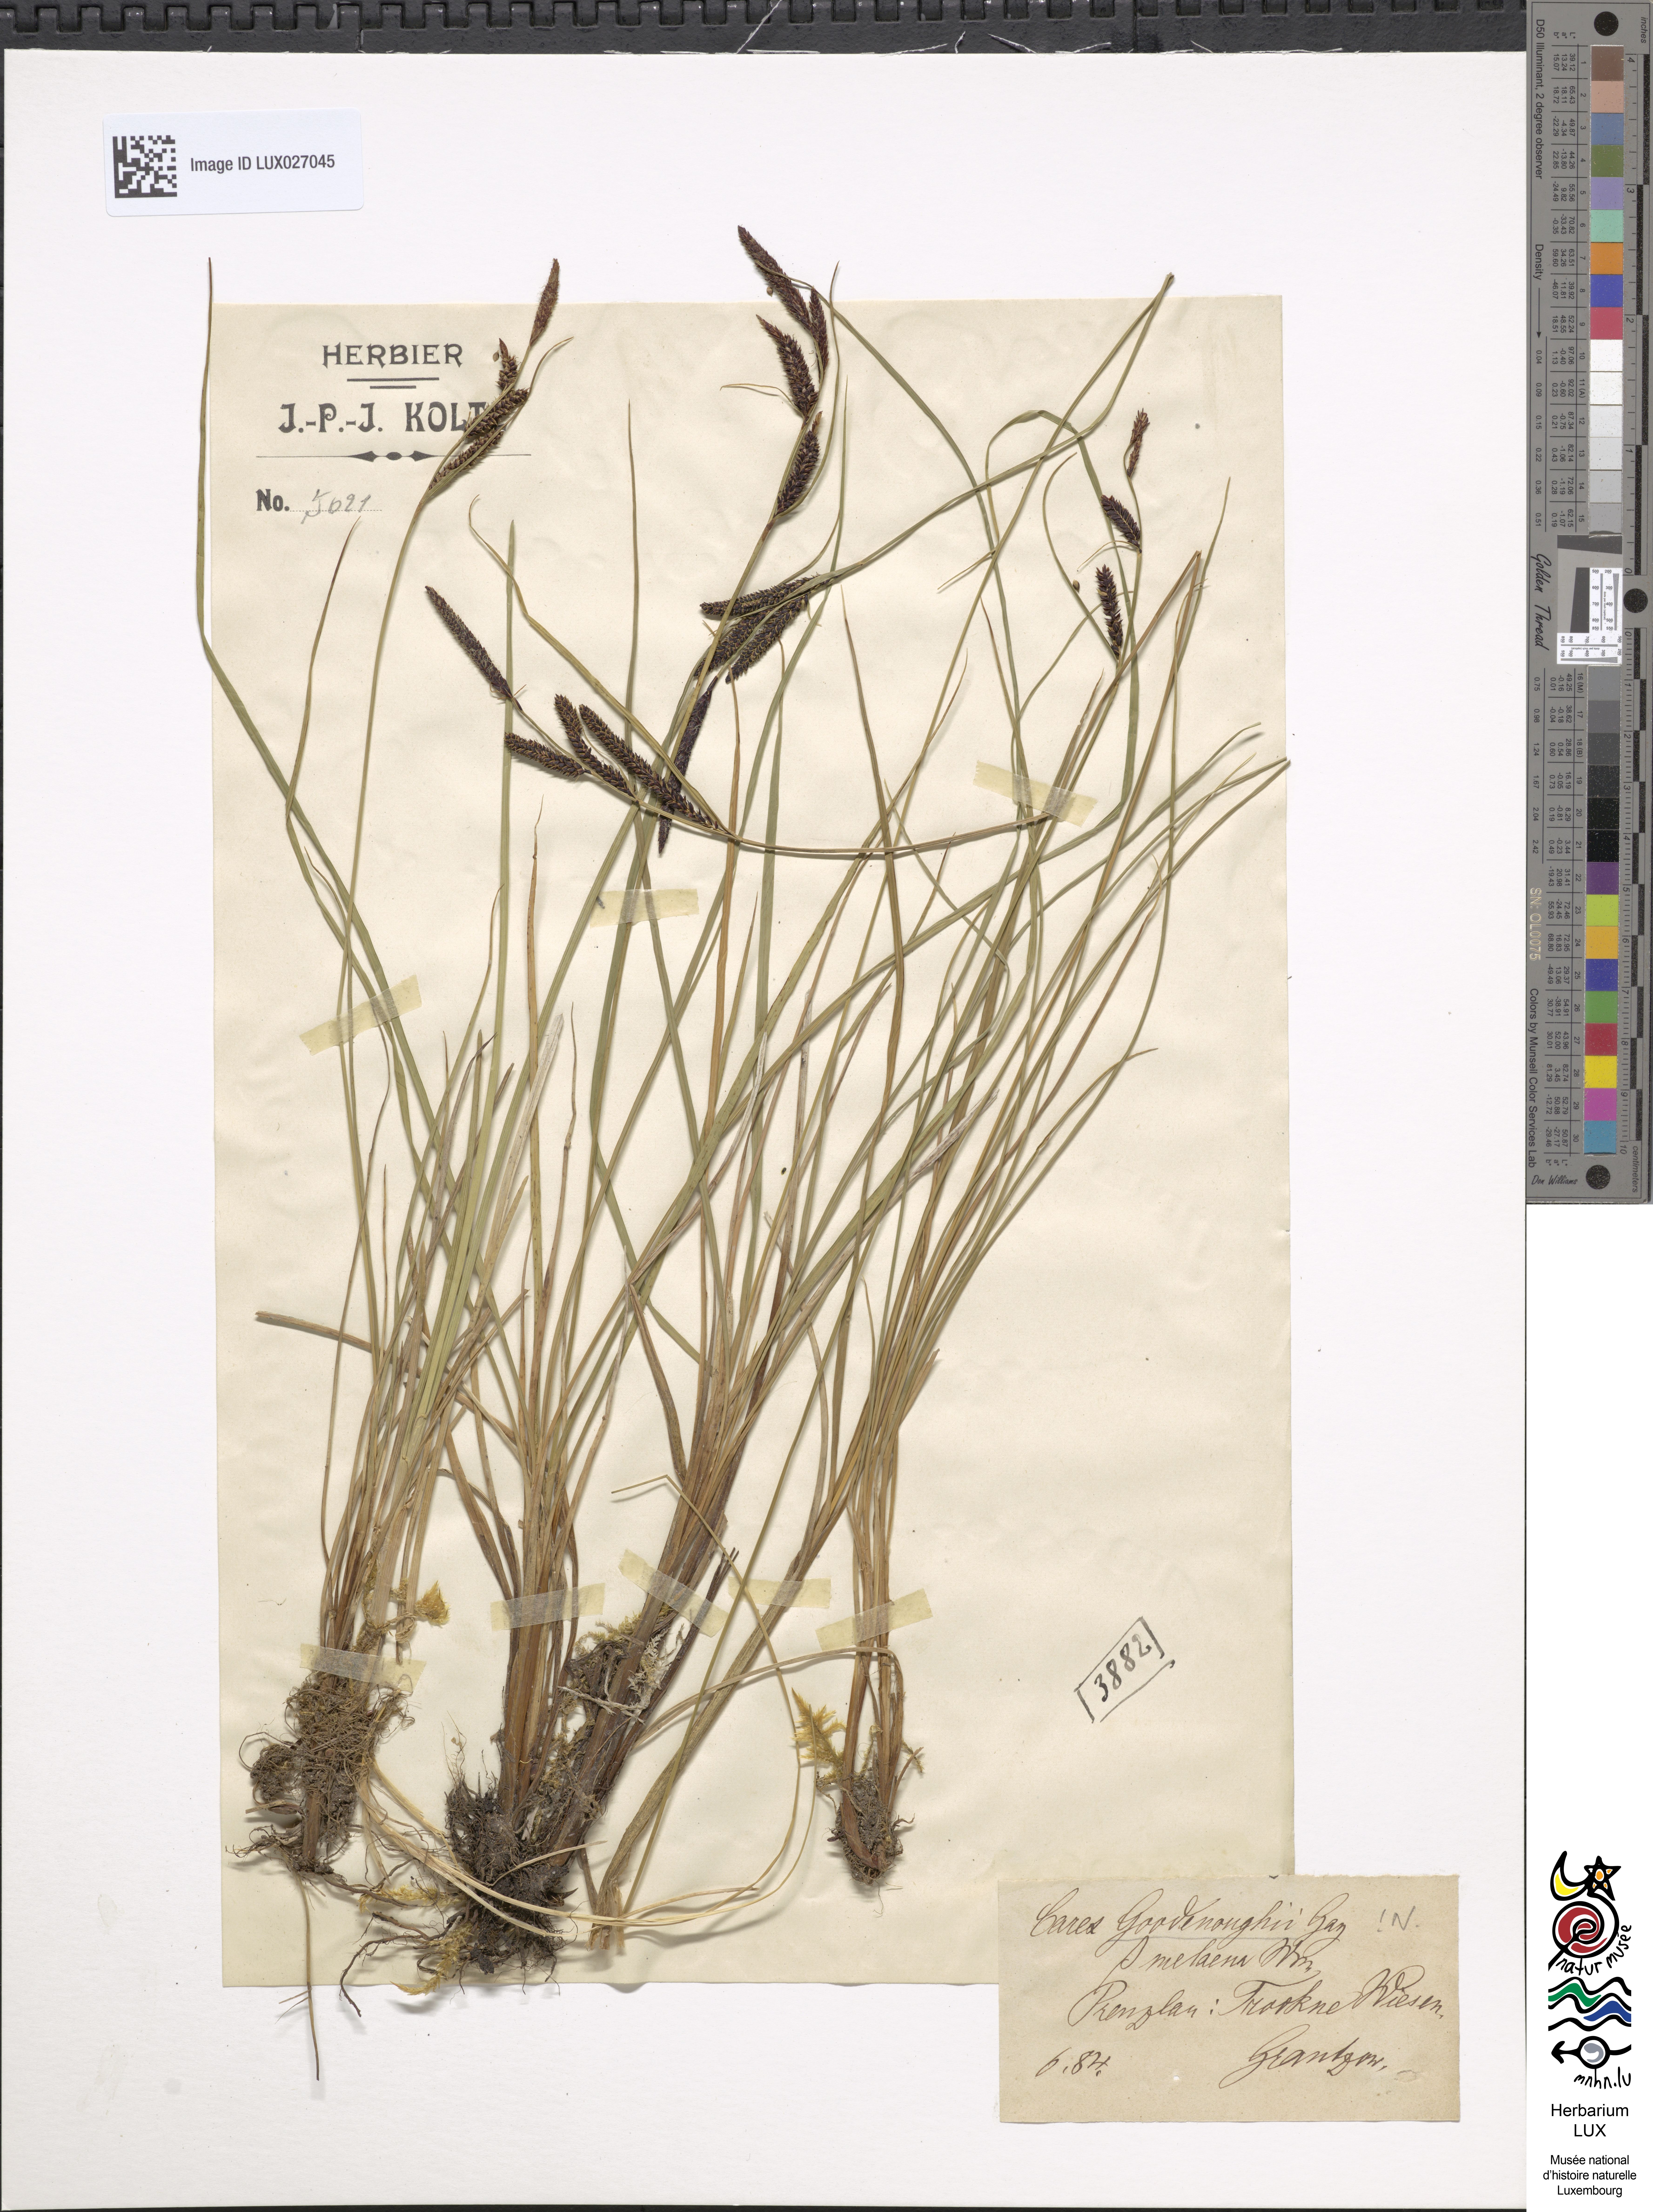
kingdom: Plantae
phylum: Tracheophyta
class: Liliopsida
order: Poales
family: Cyperaceae
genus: Carex
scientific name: Carex nigra
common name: Common sedge
